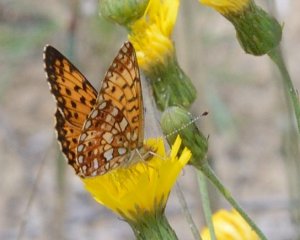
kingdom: Animalia
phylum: Arthropoda
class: Insecta
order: Lepidoptera
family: Nymphalidae
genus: Boloria
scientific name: Boloria selene
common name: Silver-bordered Fritillary
